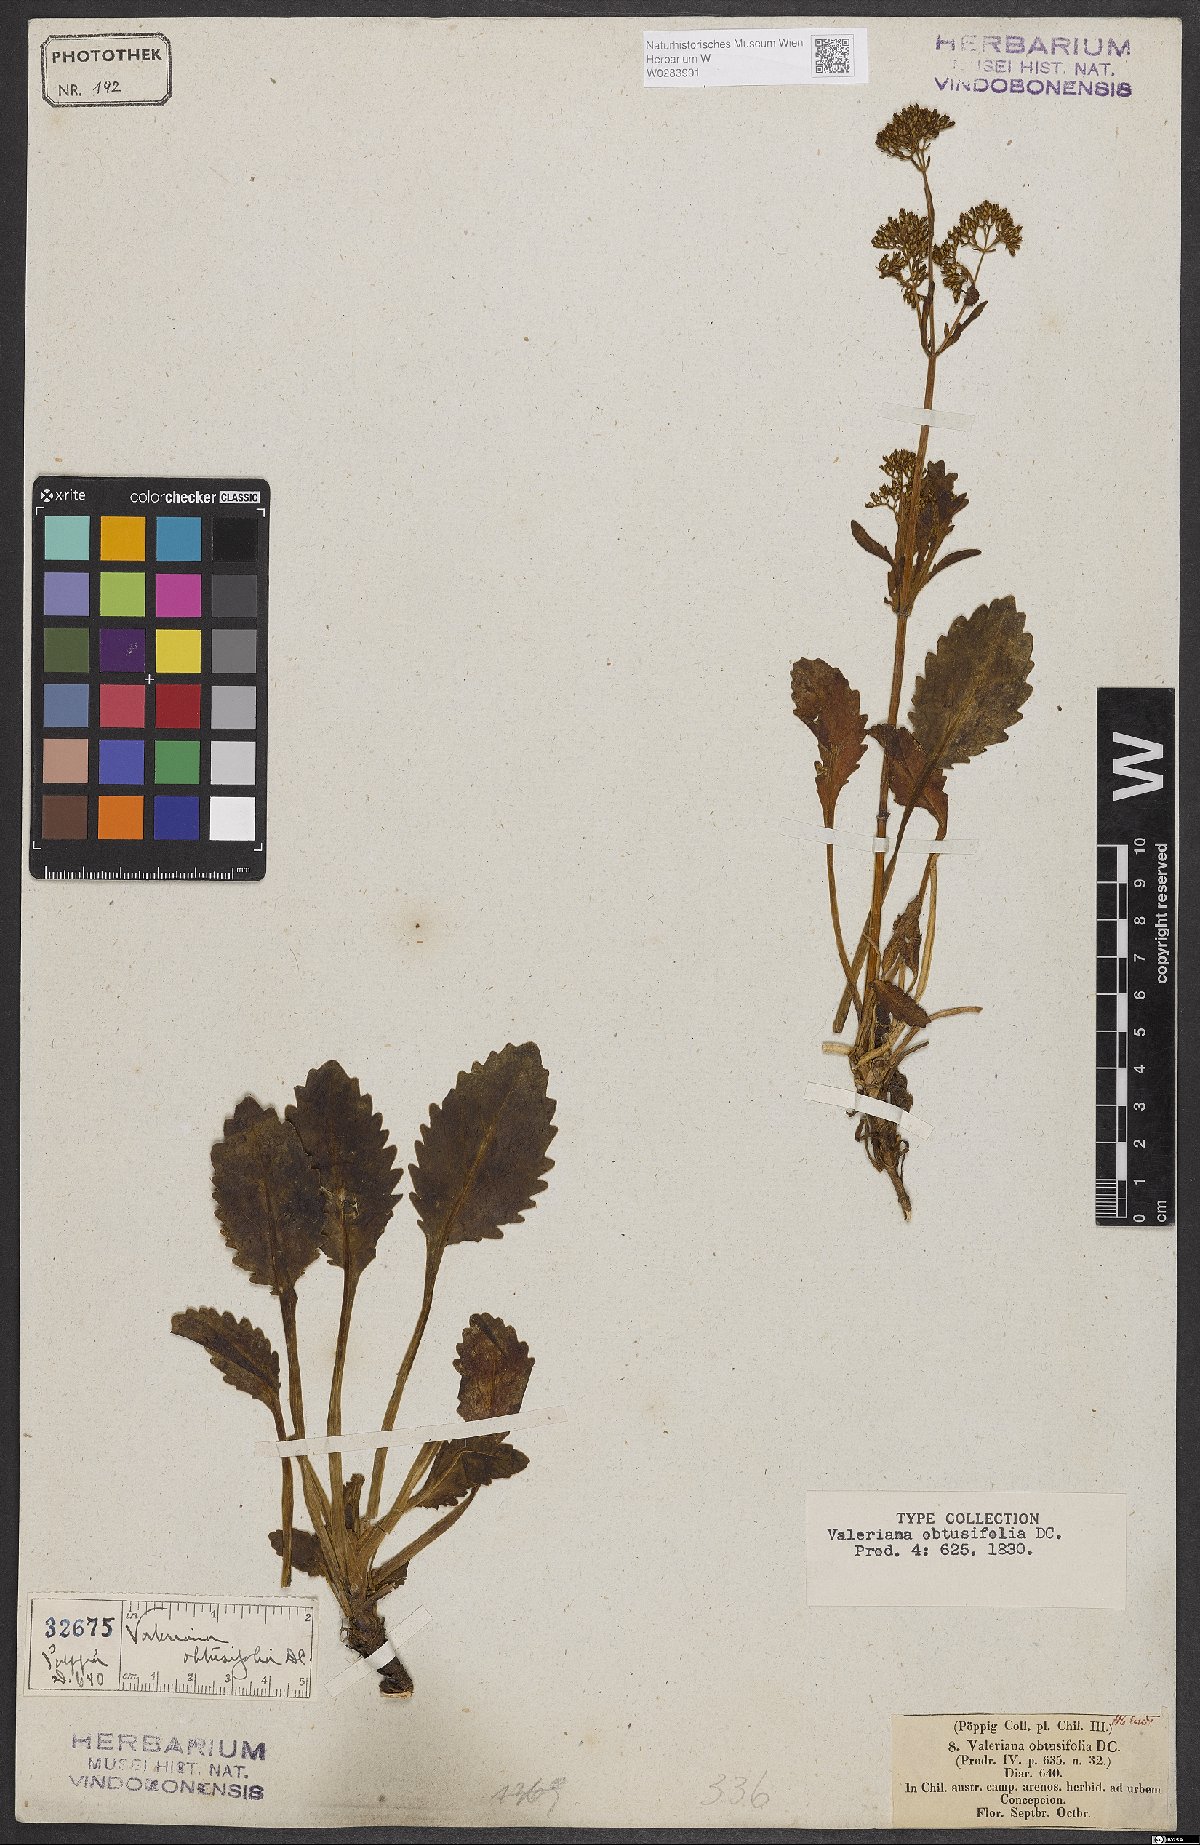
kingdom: Plantae
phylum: Tracheophyta
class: Magnoliopsida
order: Dipsacales
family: Caprifoliaceae
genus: Valeriana
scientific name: Valeriana obtusifolia
